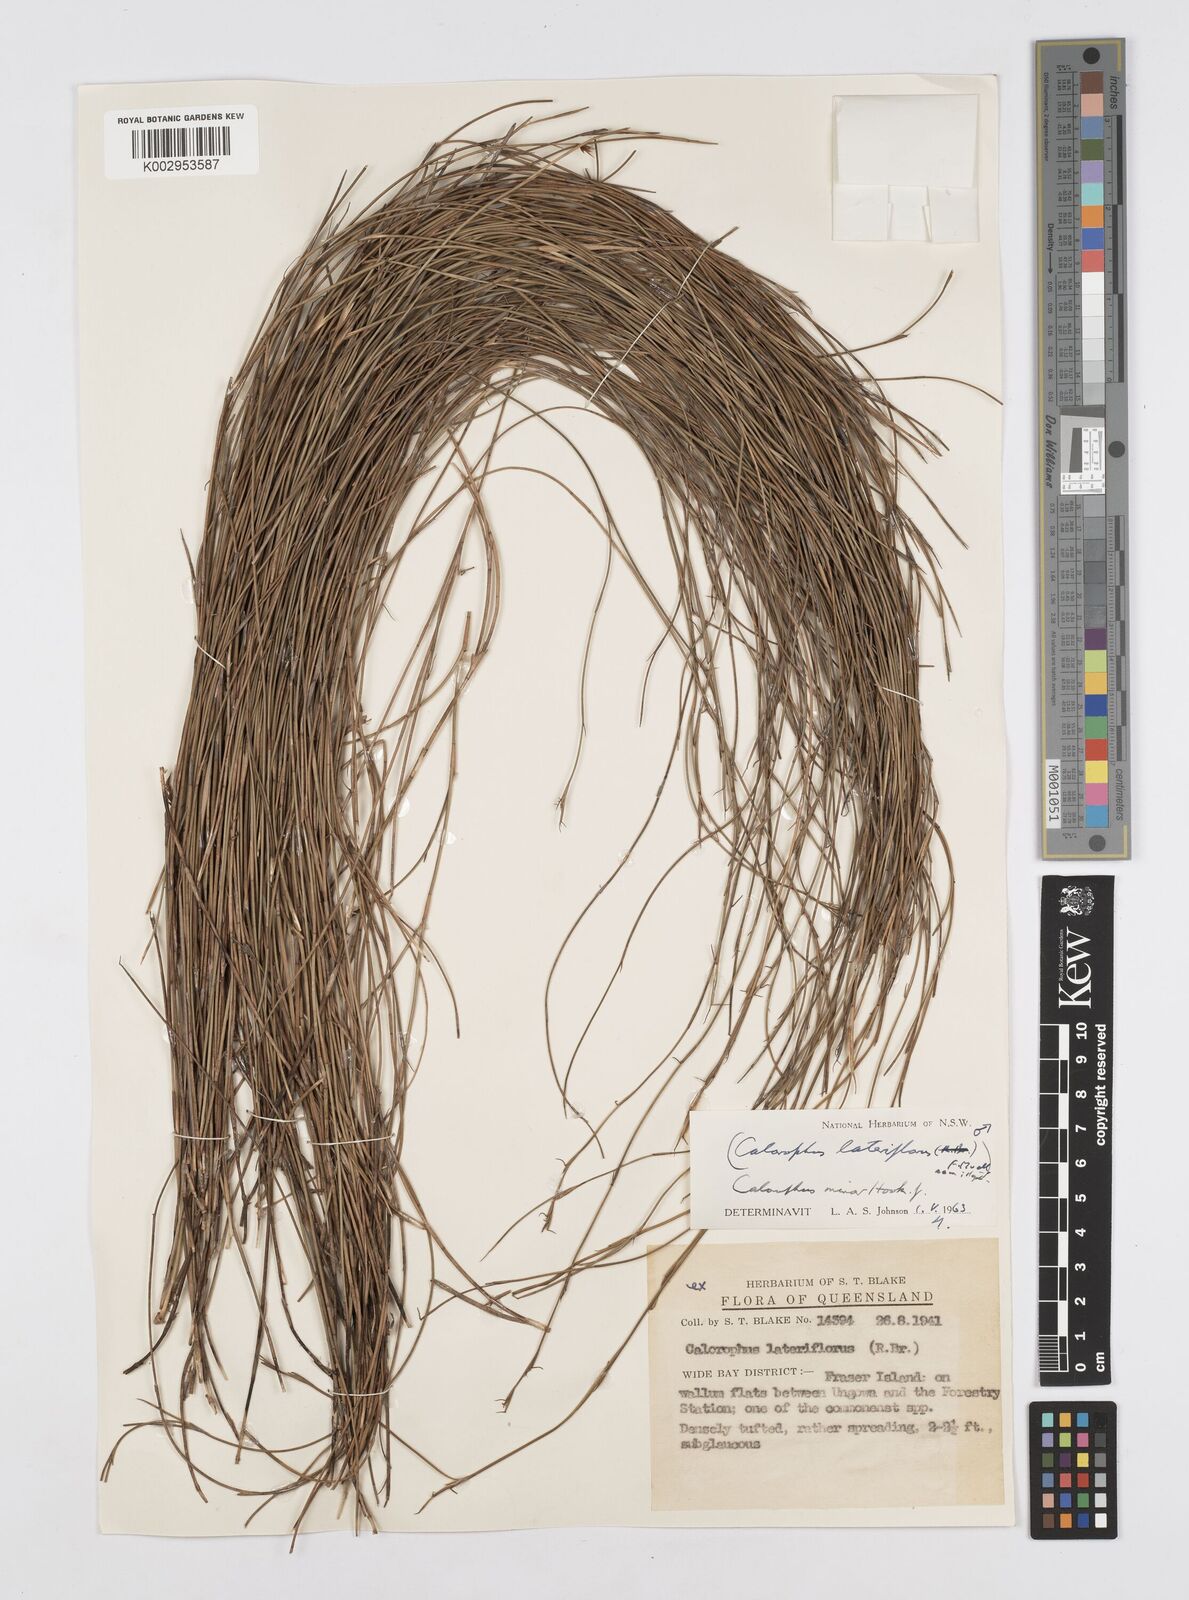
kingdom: Plantae
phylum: Tracheophyta
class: Liliopsida
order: Poales
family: Restionaceae
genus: Empodisma
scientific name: Empodisma minus
